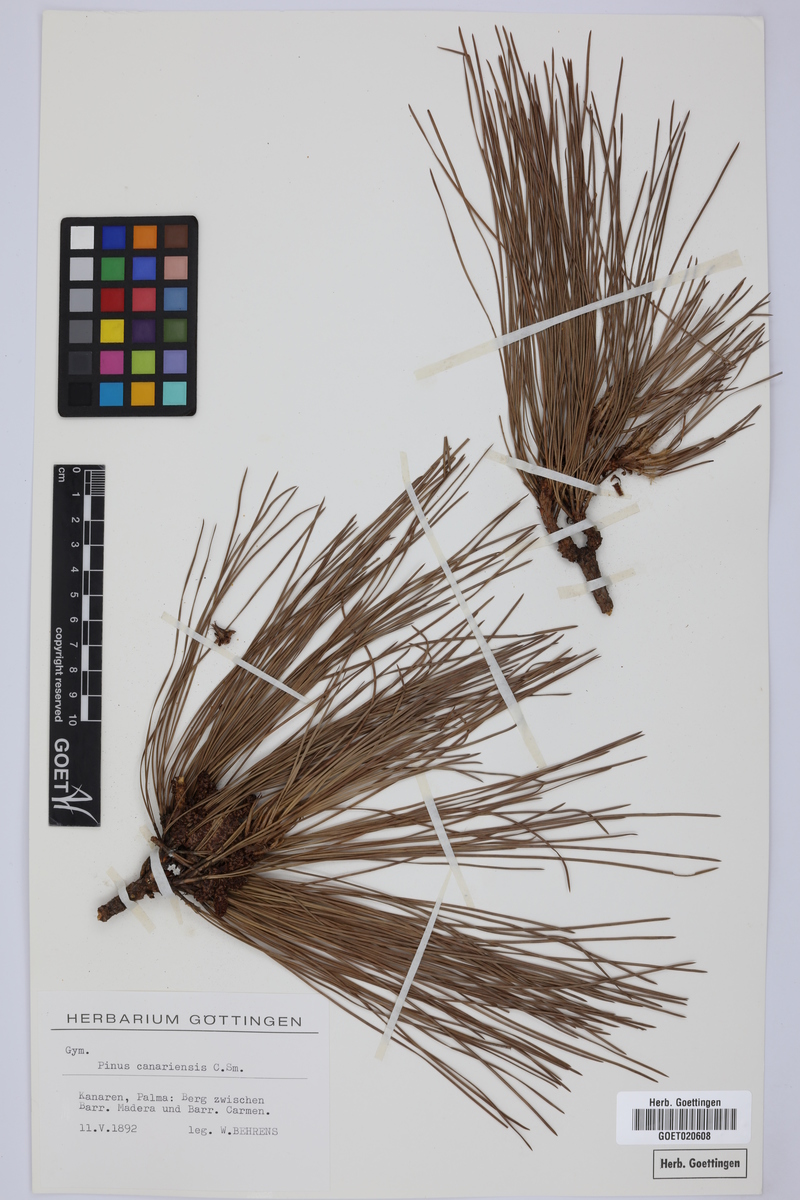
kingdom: Plantae
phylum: Tracheophyta
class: Pinopsida
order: Pinales
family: Pinaceae
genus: Pinus
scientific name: Pinus canariensis
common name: Canary islands pine
